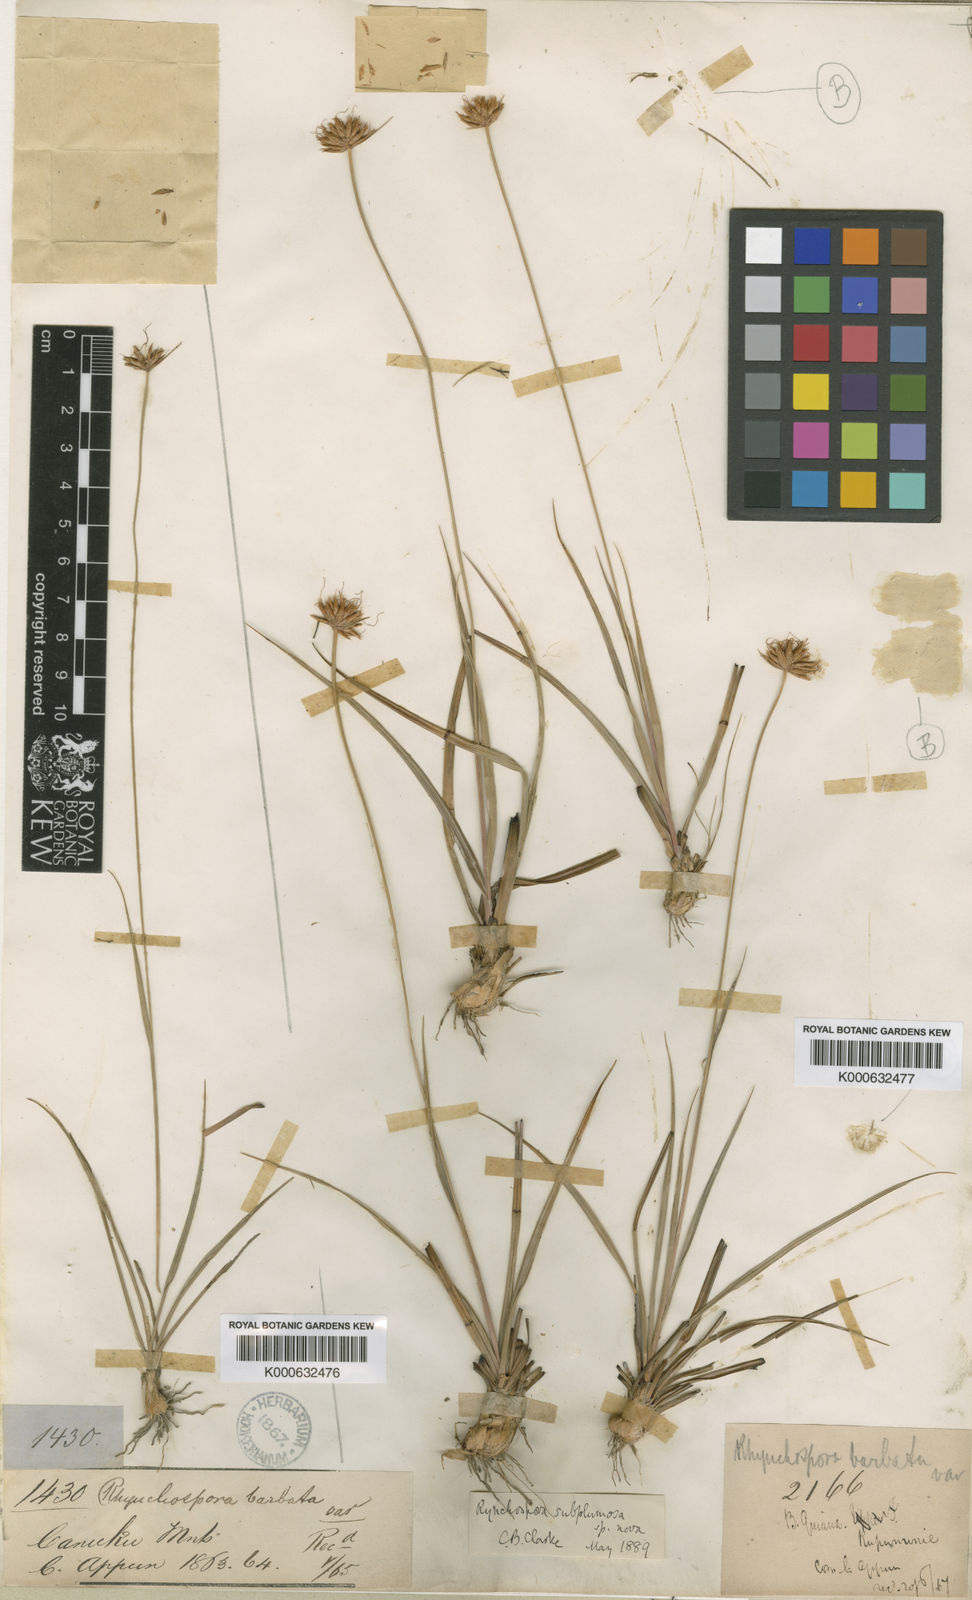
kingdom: Plantae
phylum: Tracheophyta
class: Liliopsida
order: Poales
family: Cyperaceae
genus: Rhynchospora
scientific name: Rhynchospora subplumosa
